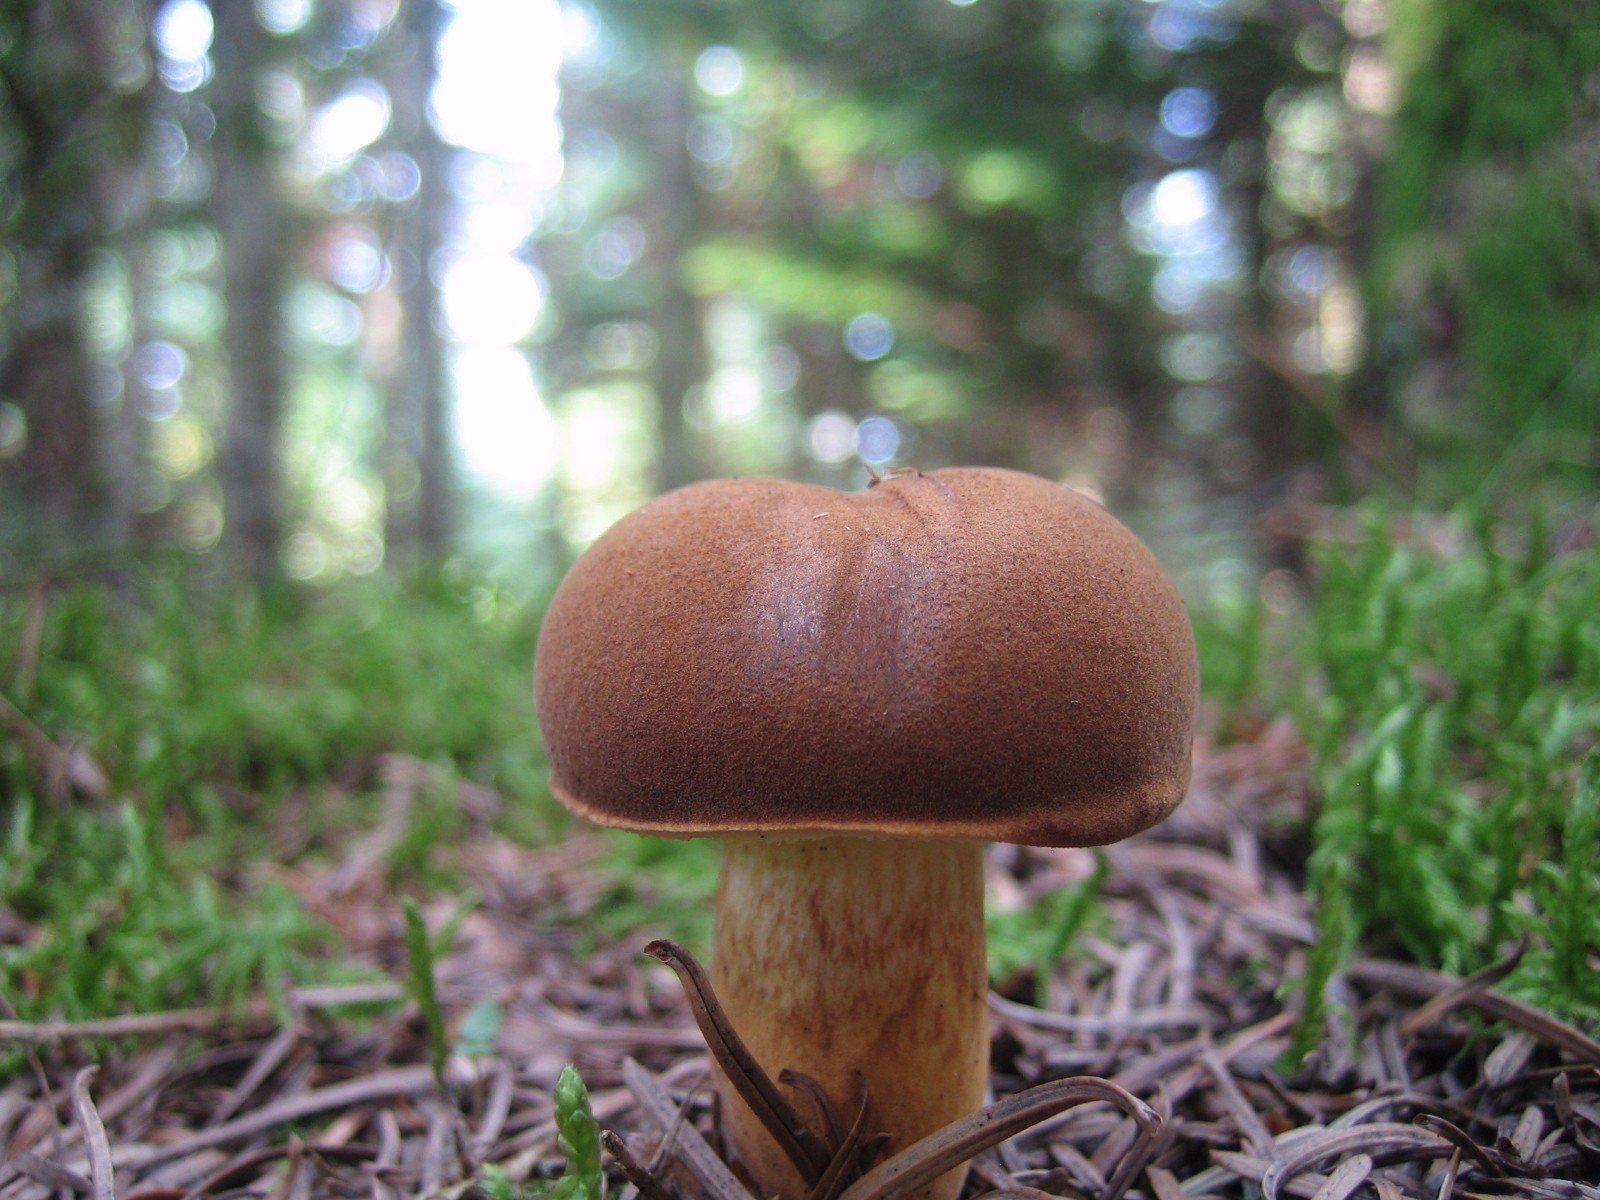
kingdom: Fungi
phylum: Basidiomycota
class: Agaricomycetes
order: Boletales
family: Boletaceae
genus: Imleria
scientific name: Imleria badia
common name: brunstokket rørhat
